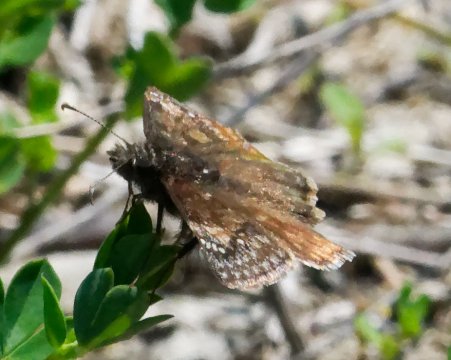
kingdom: Animalia
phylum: Arthropoda
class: Insecta
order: Lepidoptera
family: Hesperiidae
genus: Gesta
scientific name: Gesta
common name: Juvenal's Duskywing
